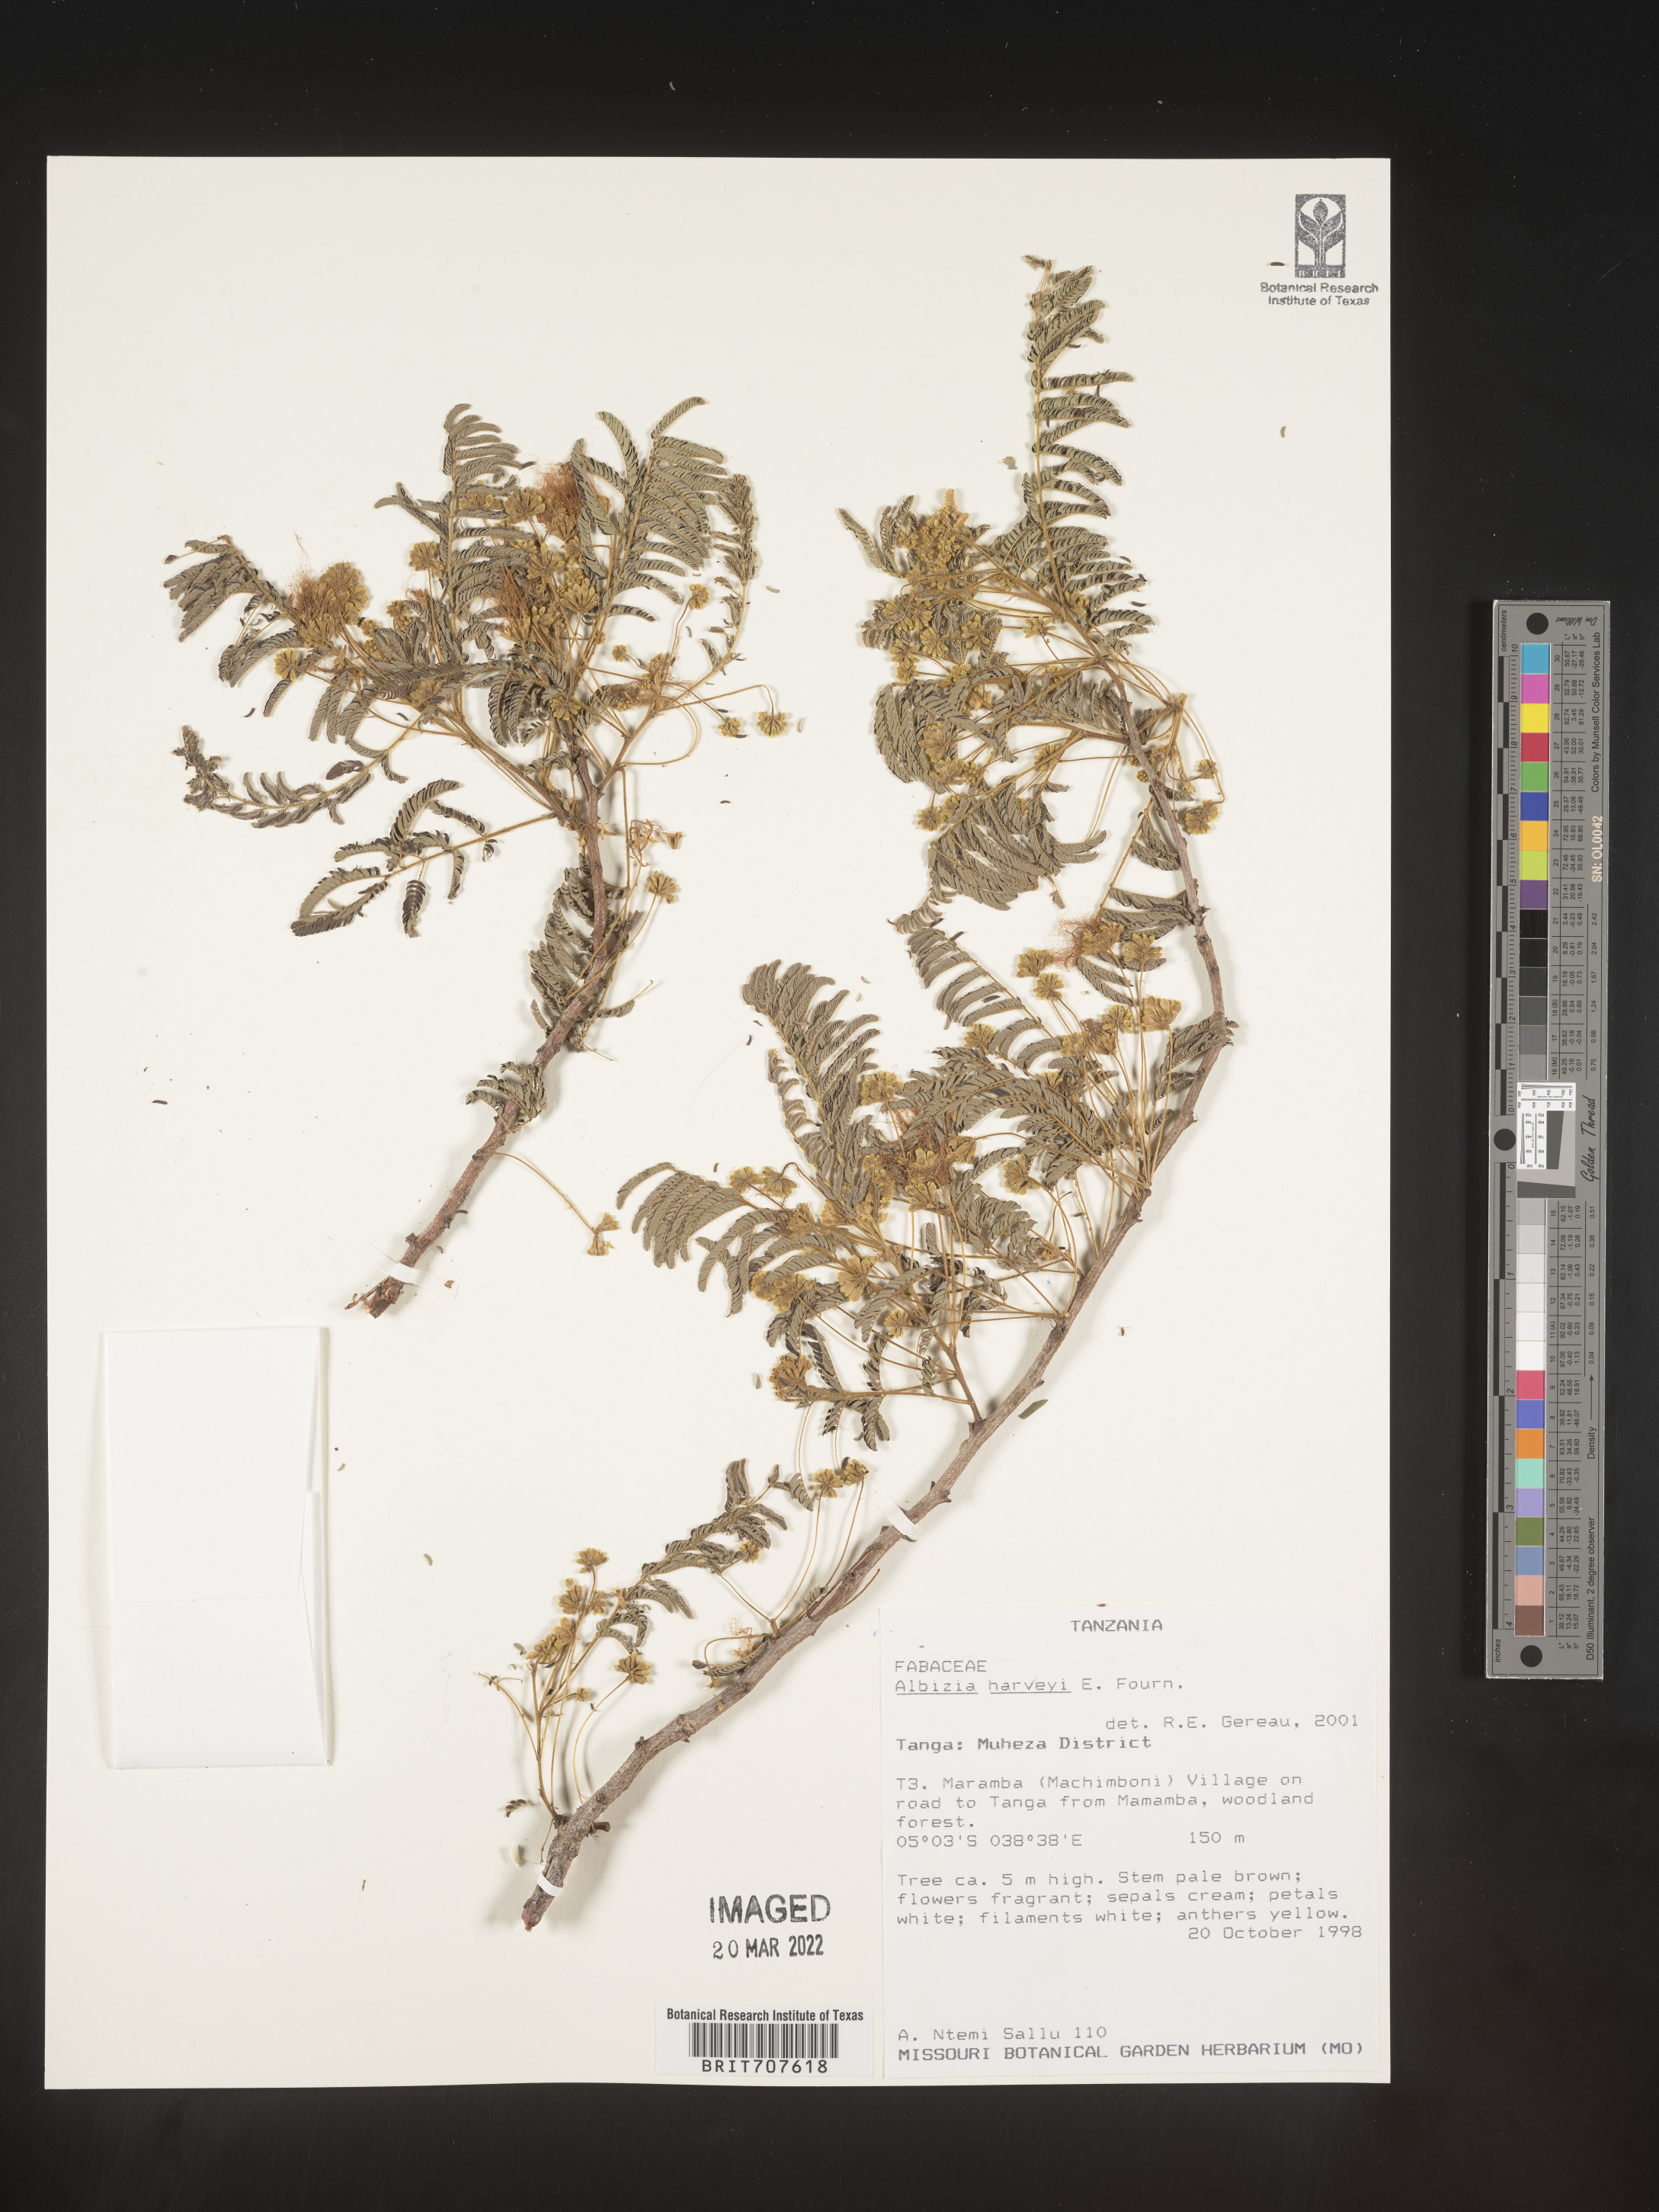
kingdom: Plantae
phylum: Tracheophyta
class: Magnoliopsida
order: Fabales
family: Fabaceae
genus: Albizia
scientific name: Albizia
